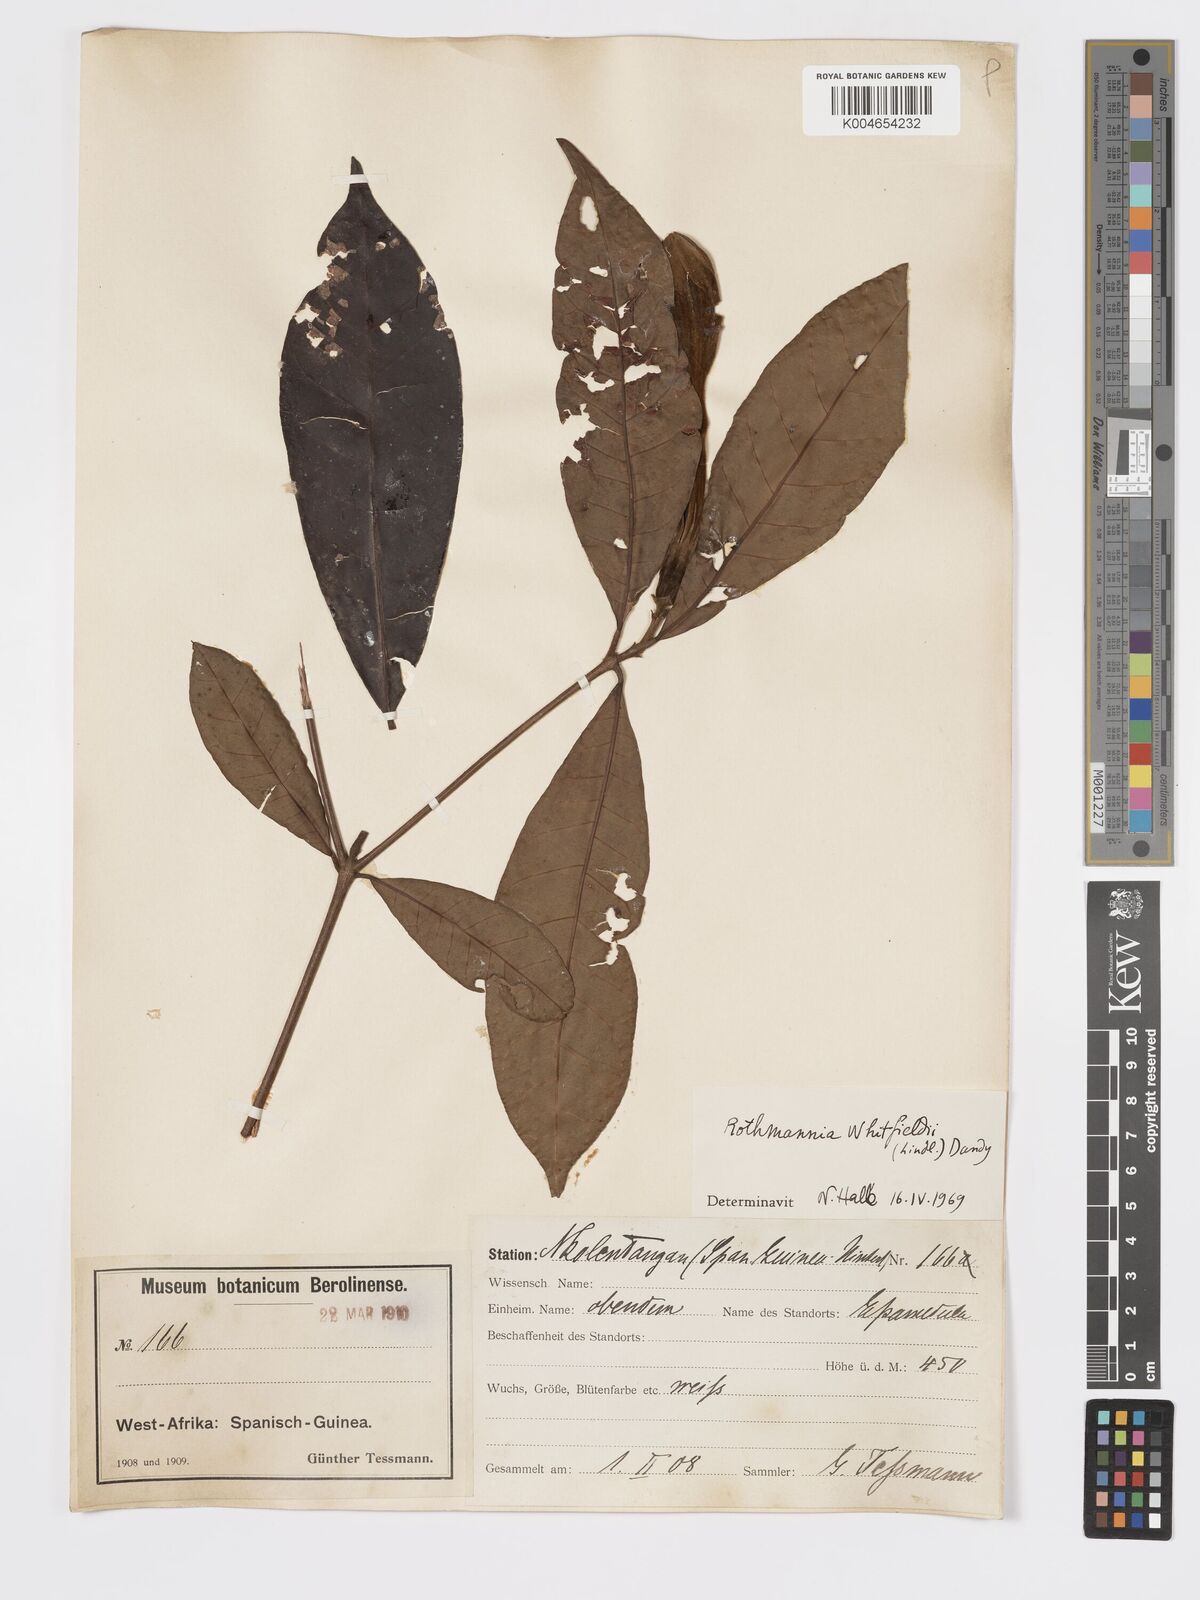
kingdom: Plantae
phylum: Tracheophyta
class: Magnoliopsida
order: Gentianales
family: Rubiaceae
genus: Rothmannia
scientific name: Rothmannia whitfieldii
